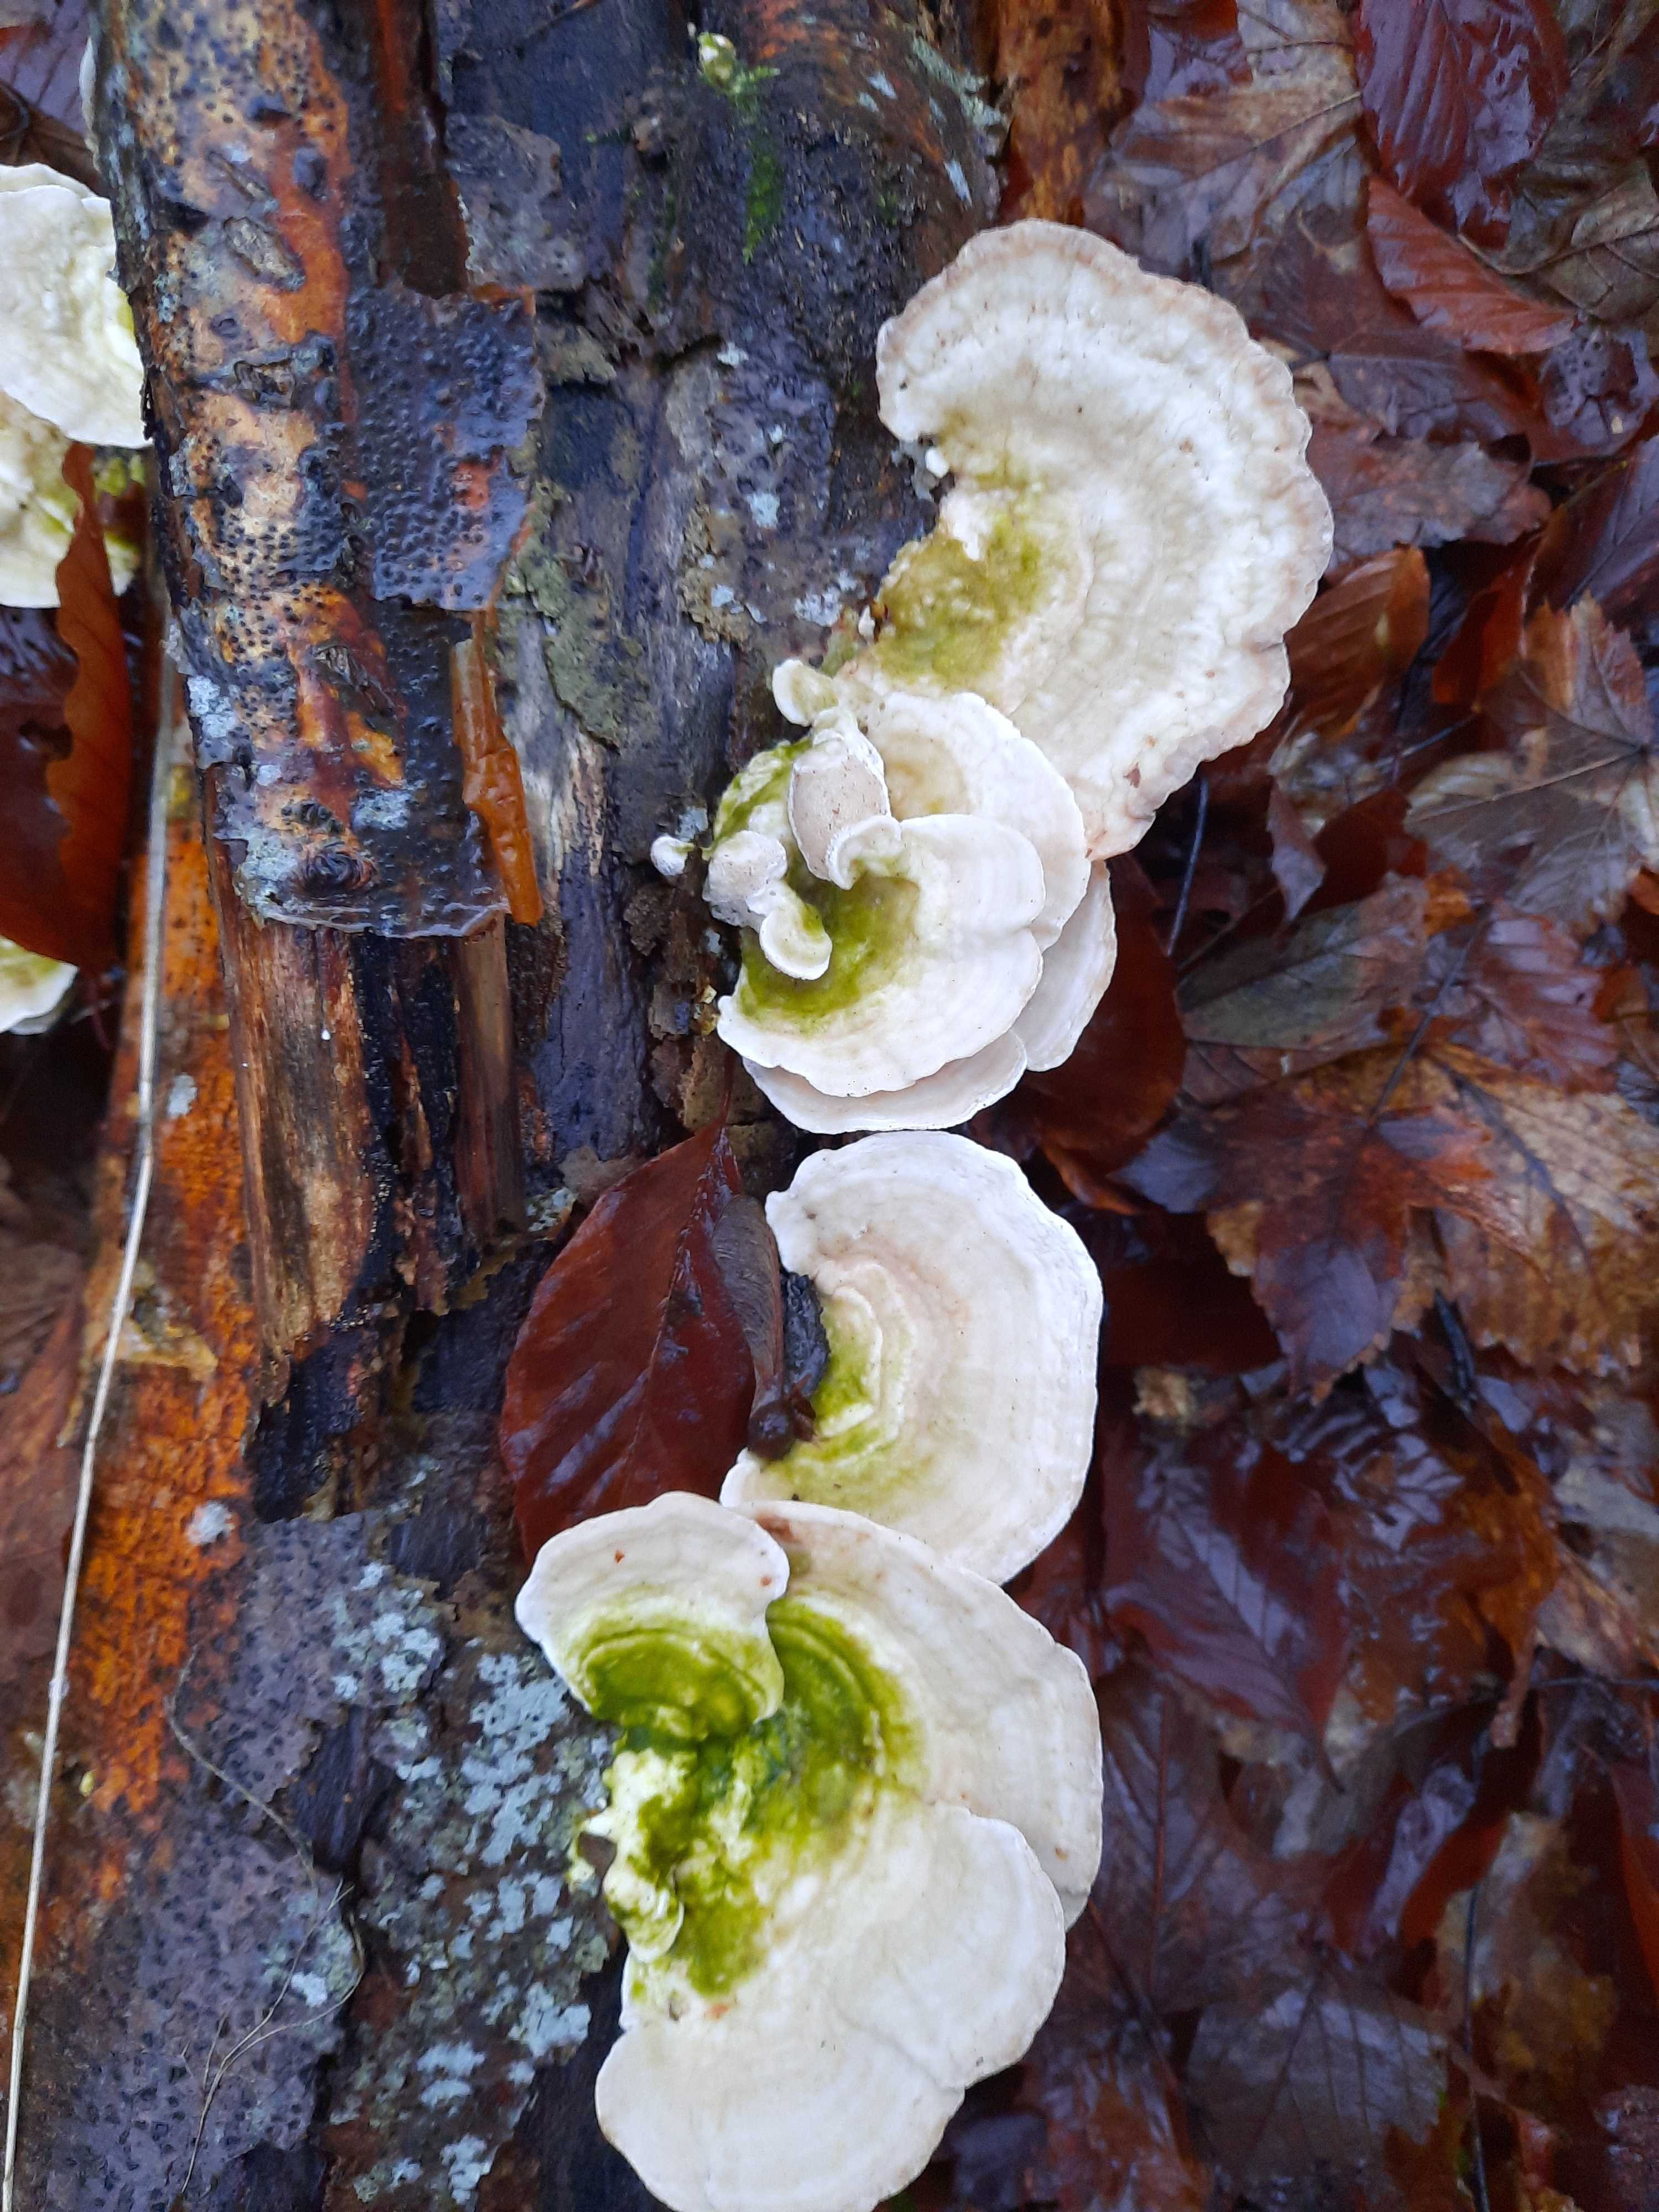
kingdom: Fungi
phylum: Basidiomycota
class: Agaricomycetes
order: Polyporales
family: Polyporaceae
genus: Trametes
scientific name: Trametes gibbosa
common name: puklet læderporesvamp
